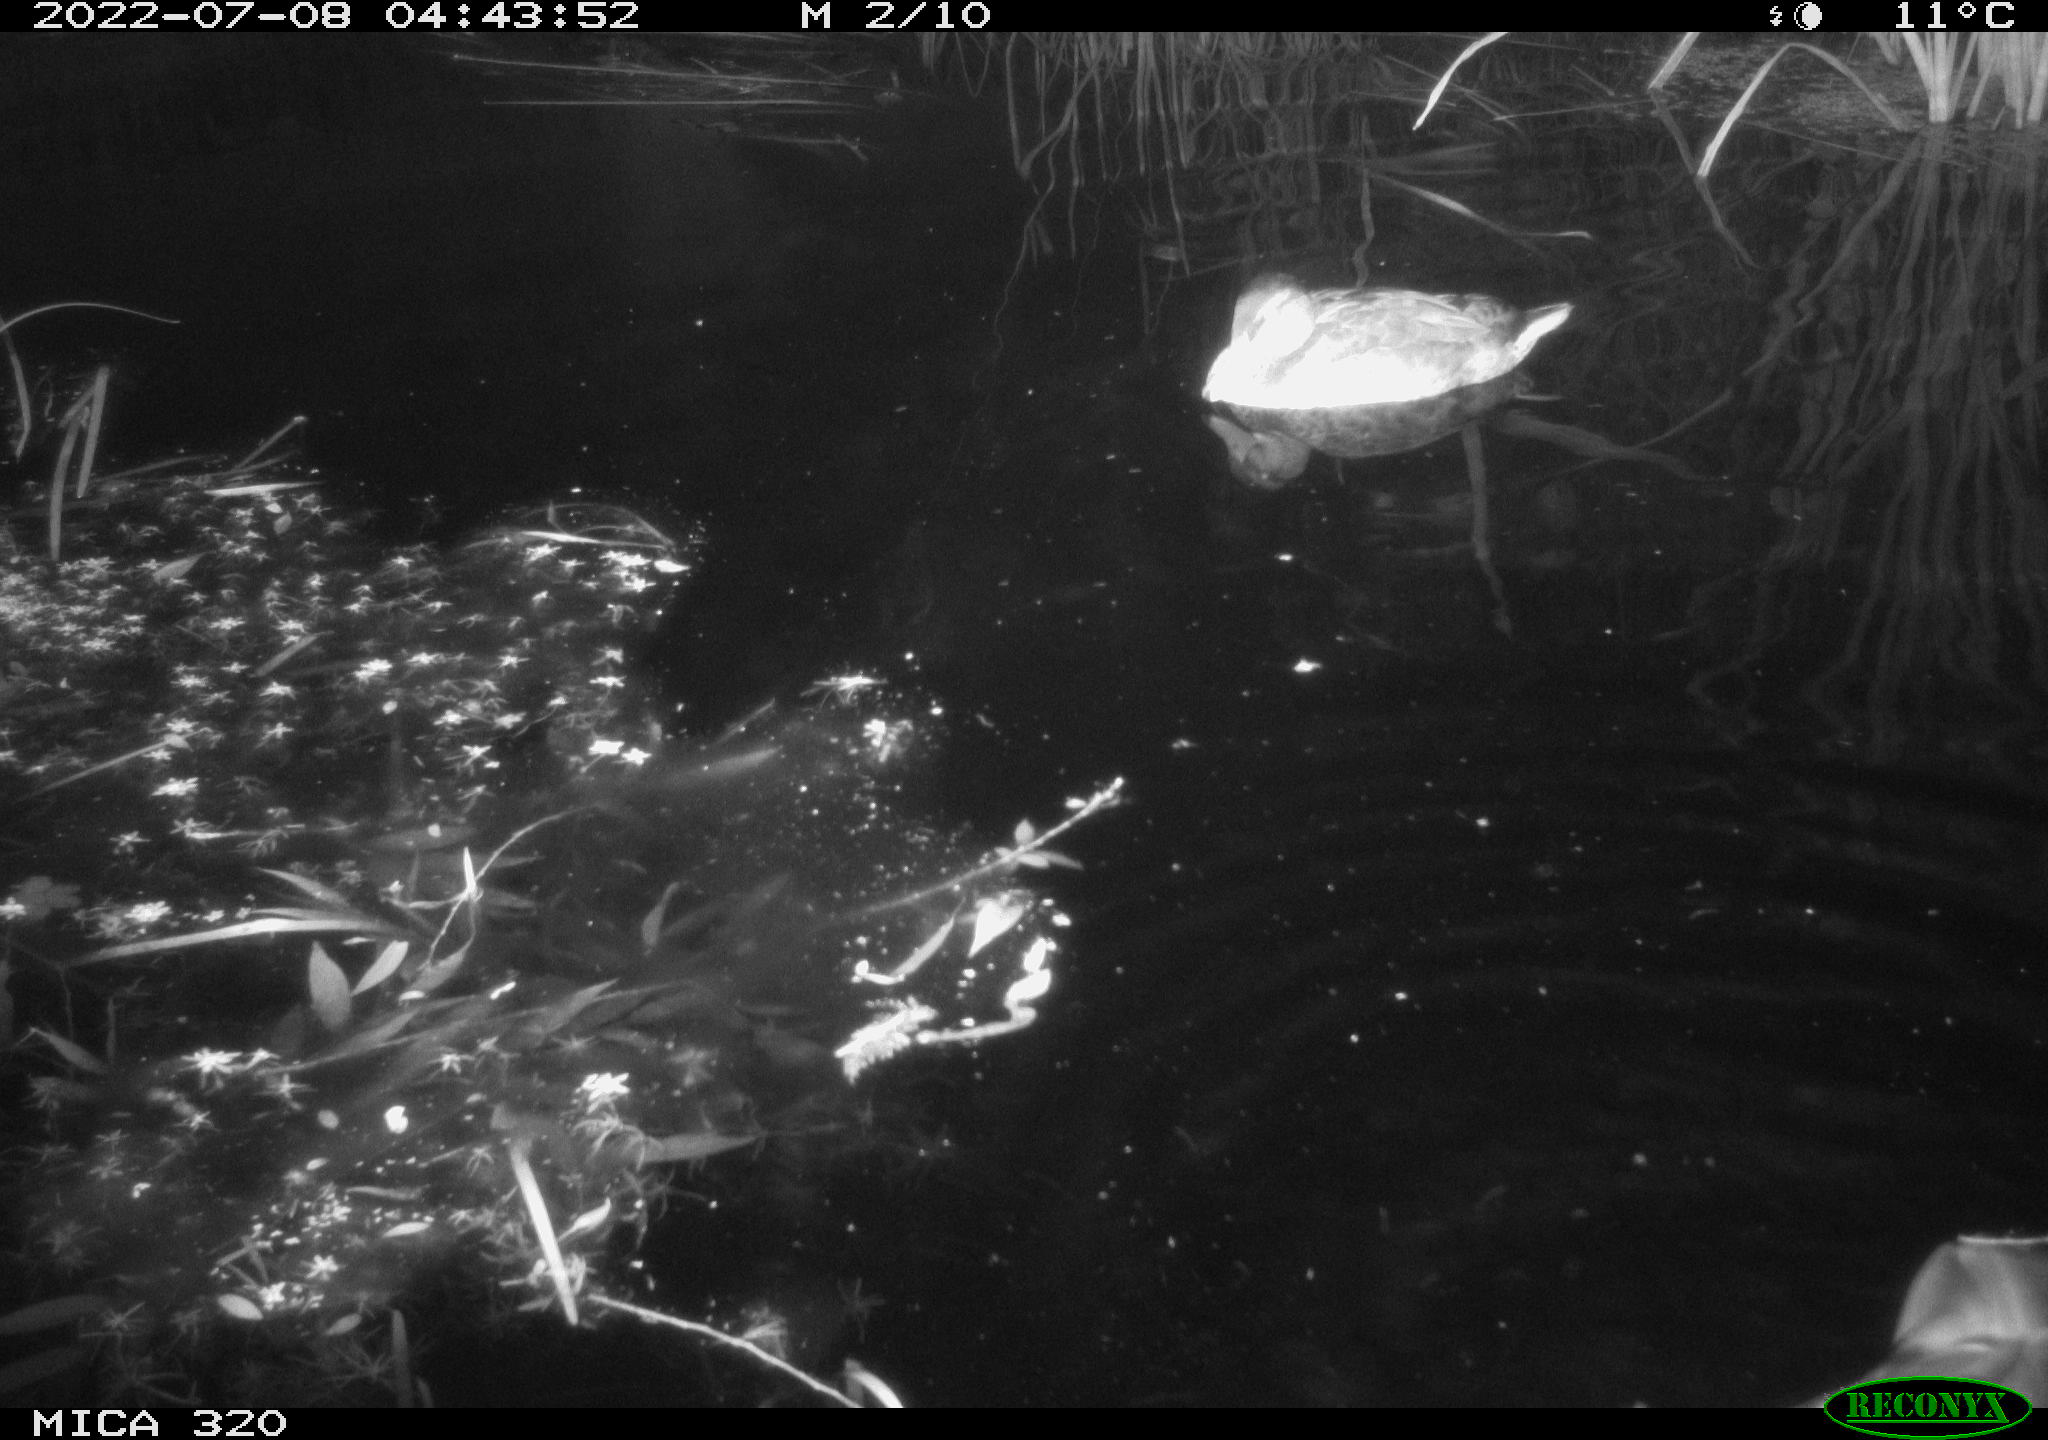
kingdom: Animalia
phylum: Chordata
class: Aves
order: Anseriformes
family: Anatidae
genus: Mareca
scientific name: Mareca strepera
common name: Gadwall
